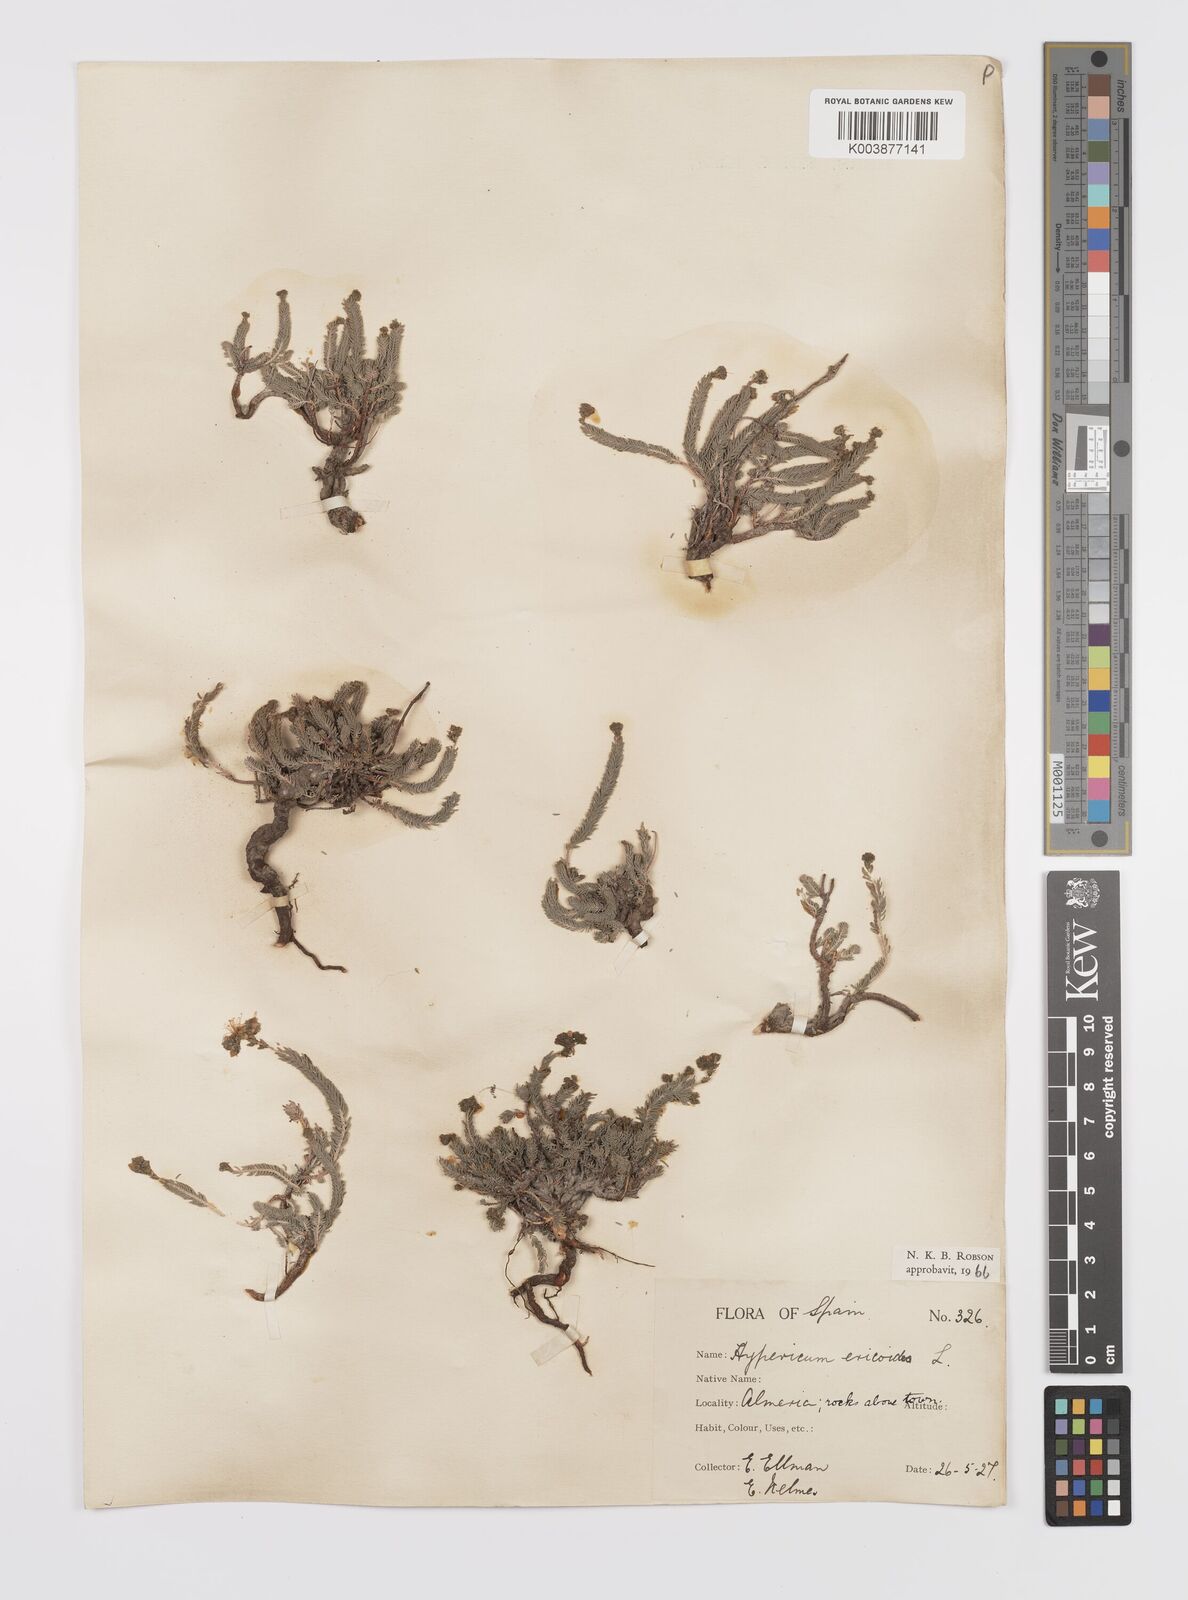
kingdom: Plantae
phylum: Tracheophyta
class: Magnoliopsida
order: Malpighiales
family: Hypericaceae
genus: Hypericum
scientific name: Hypericum ericoides
